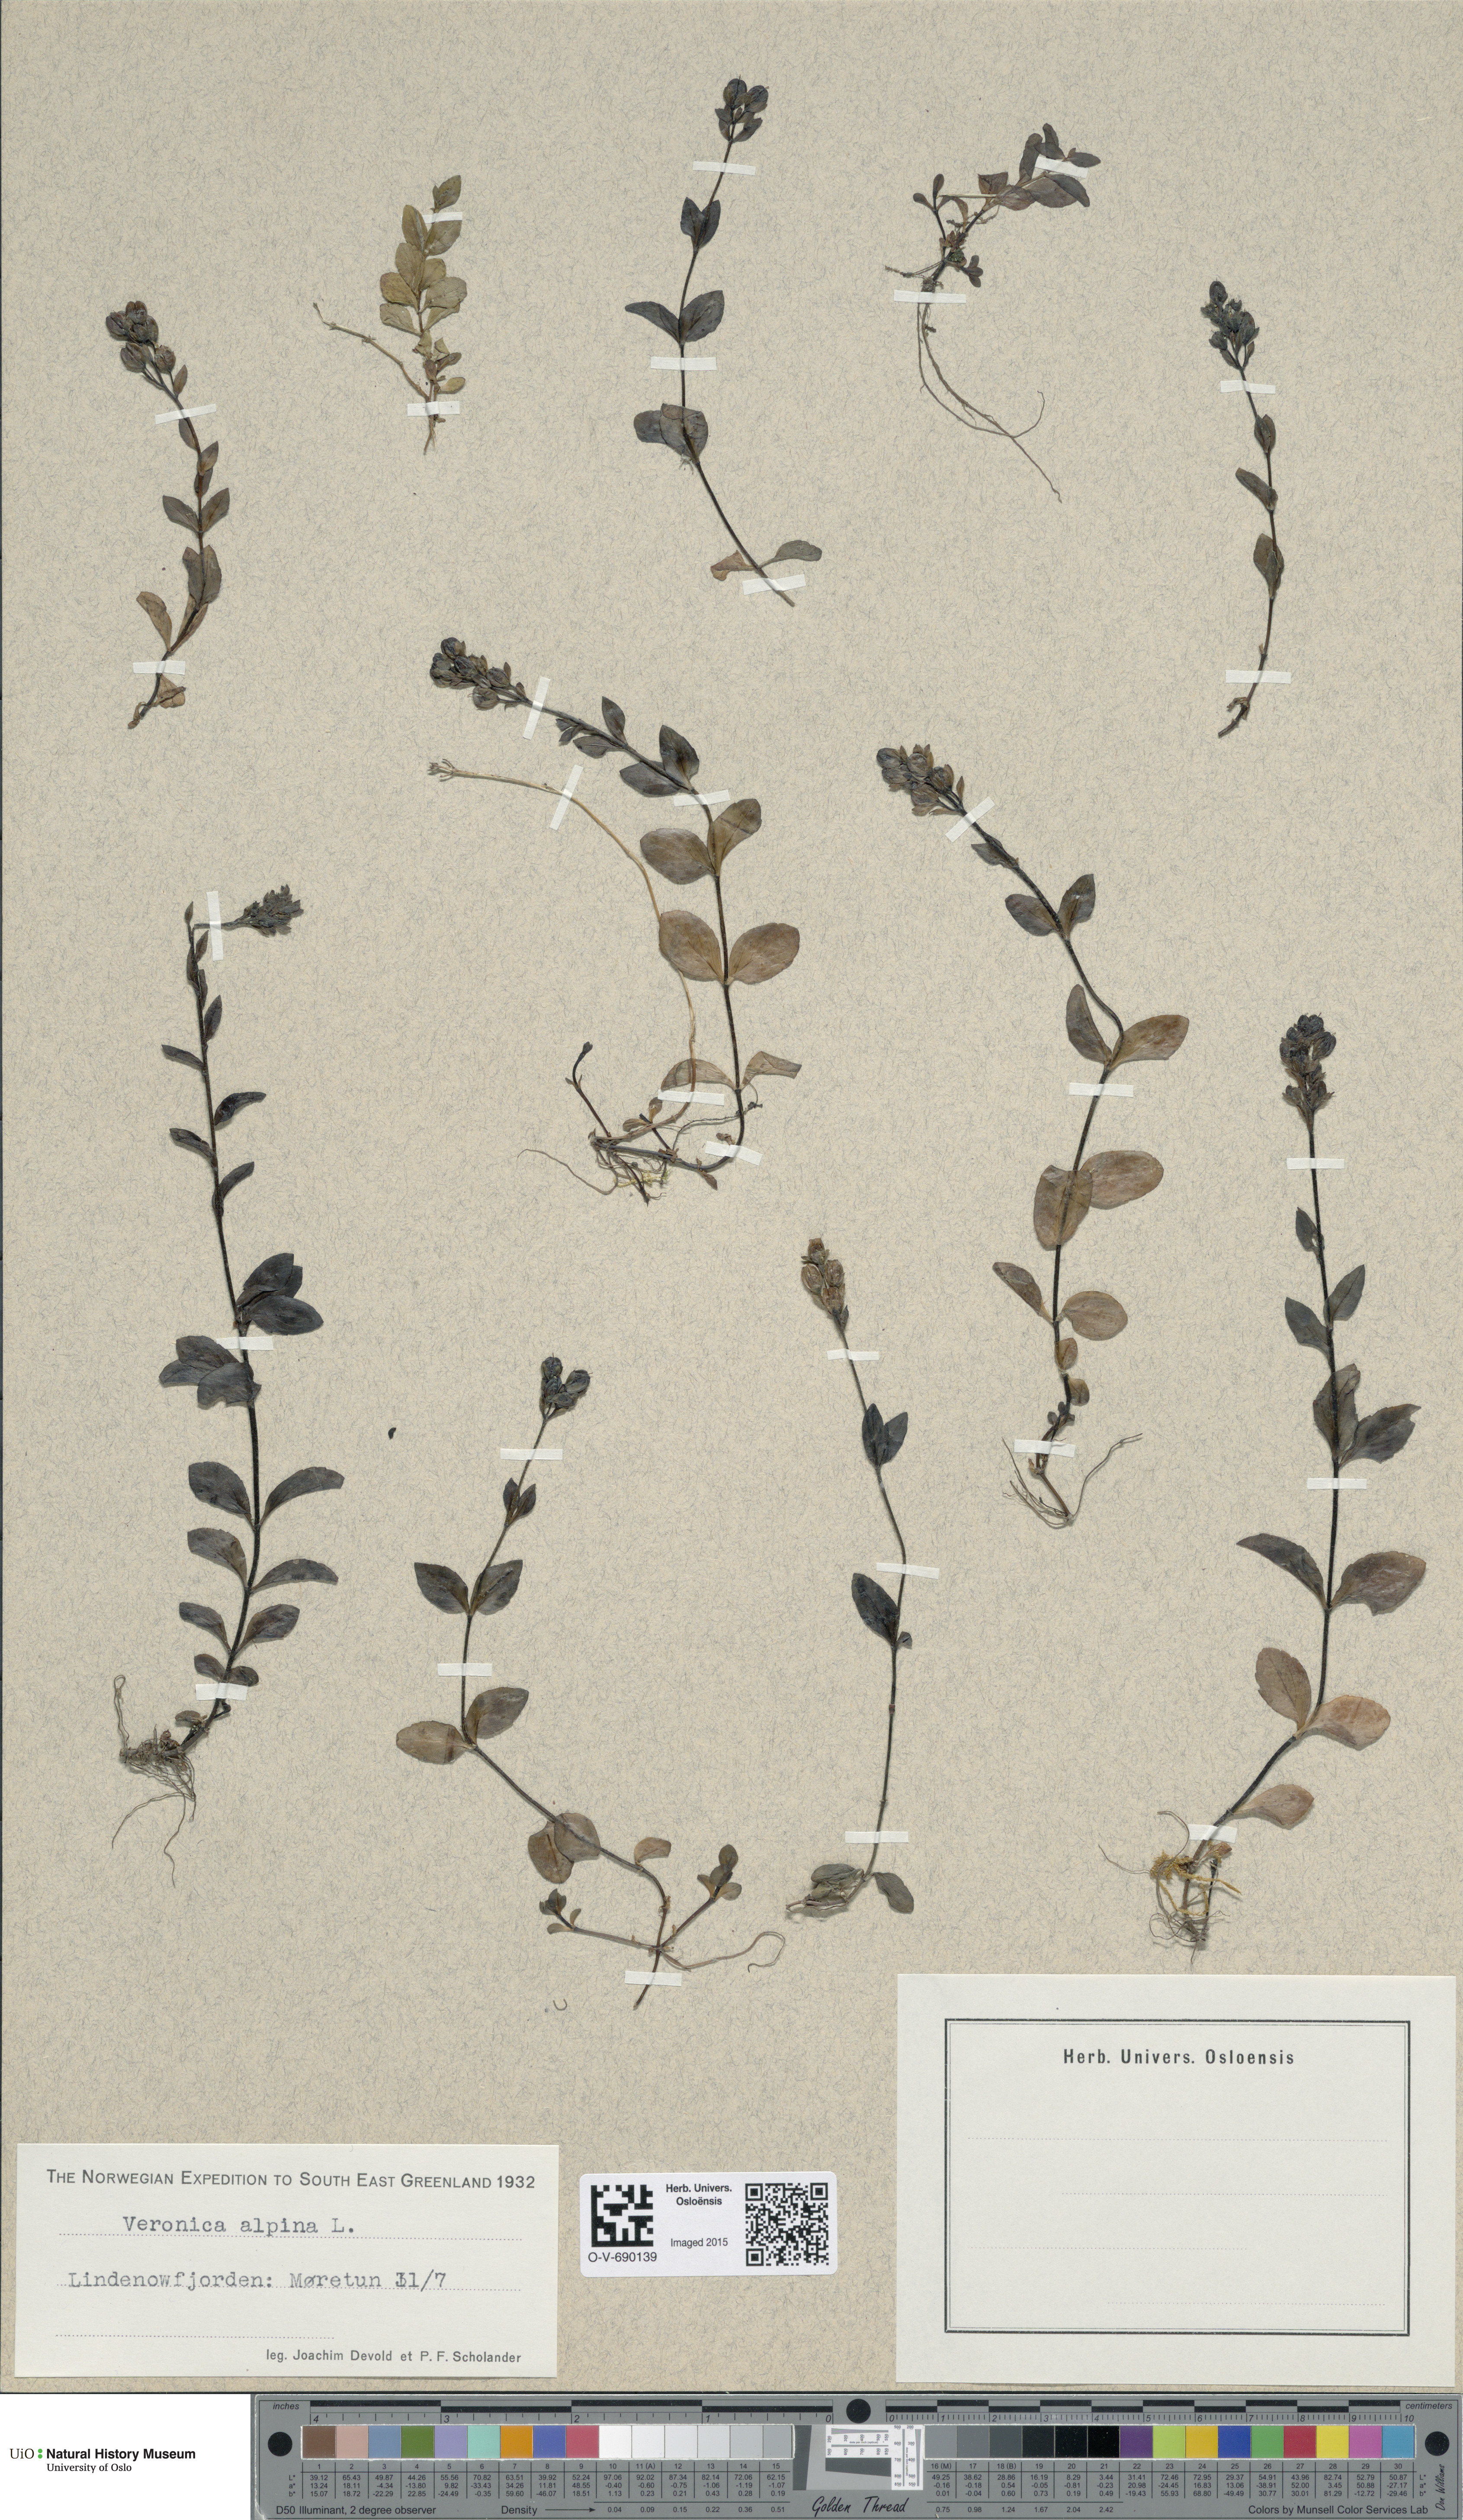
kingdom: Plantae
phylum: Tracheophyta
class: Magnoliopsida
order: Lamiales
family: Plantaginaceae
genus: Veronica
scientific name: Veronica alpina
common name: Alpine speedwell
